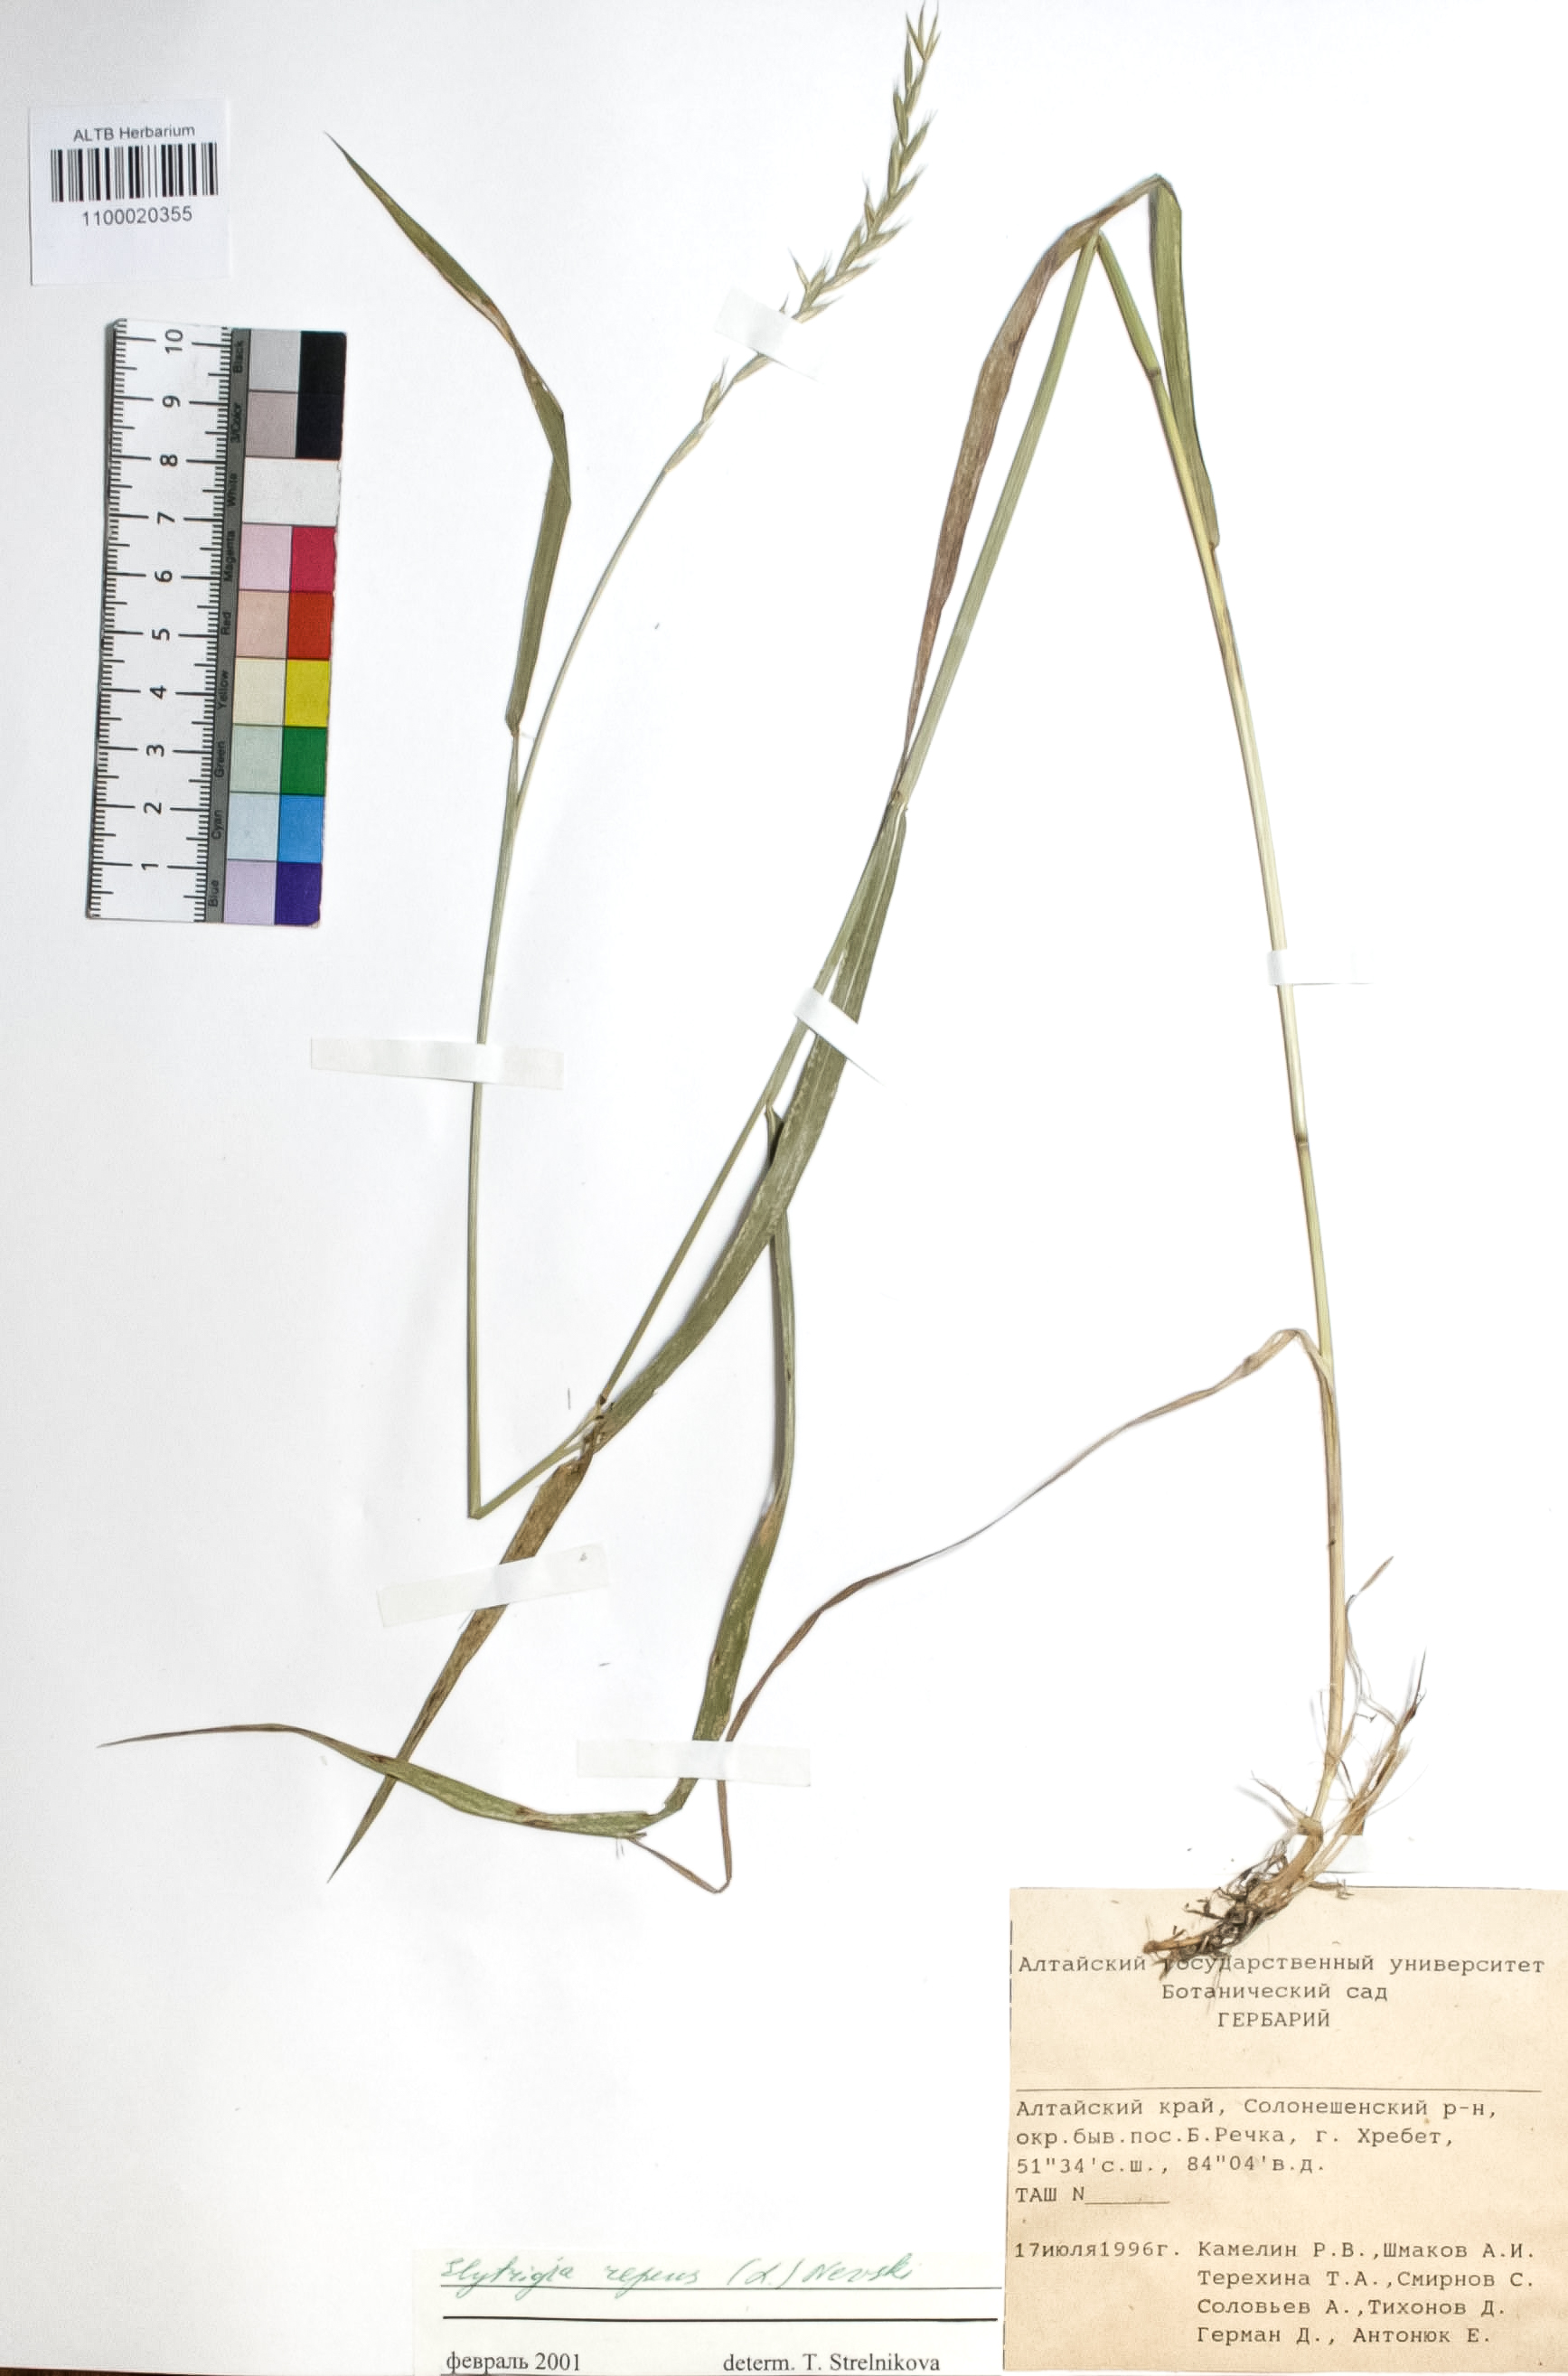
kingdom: Plantae
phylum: Tracheophyta
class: Liliopsida
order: Poales
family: Poaceae
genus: Elymus
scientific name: Elymus repens
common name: Quackgrass
